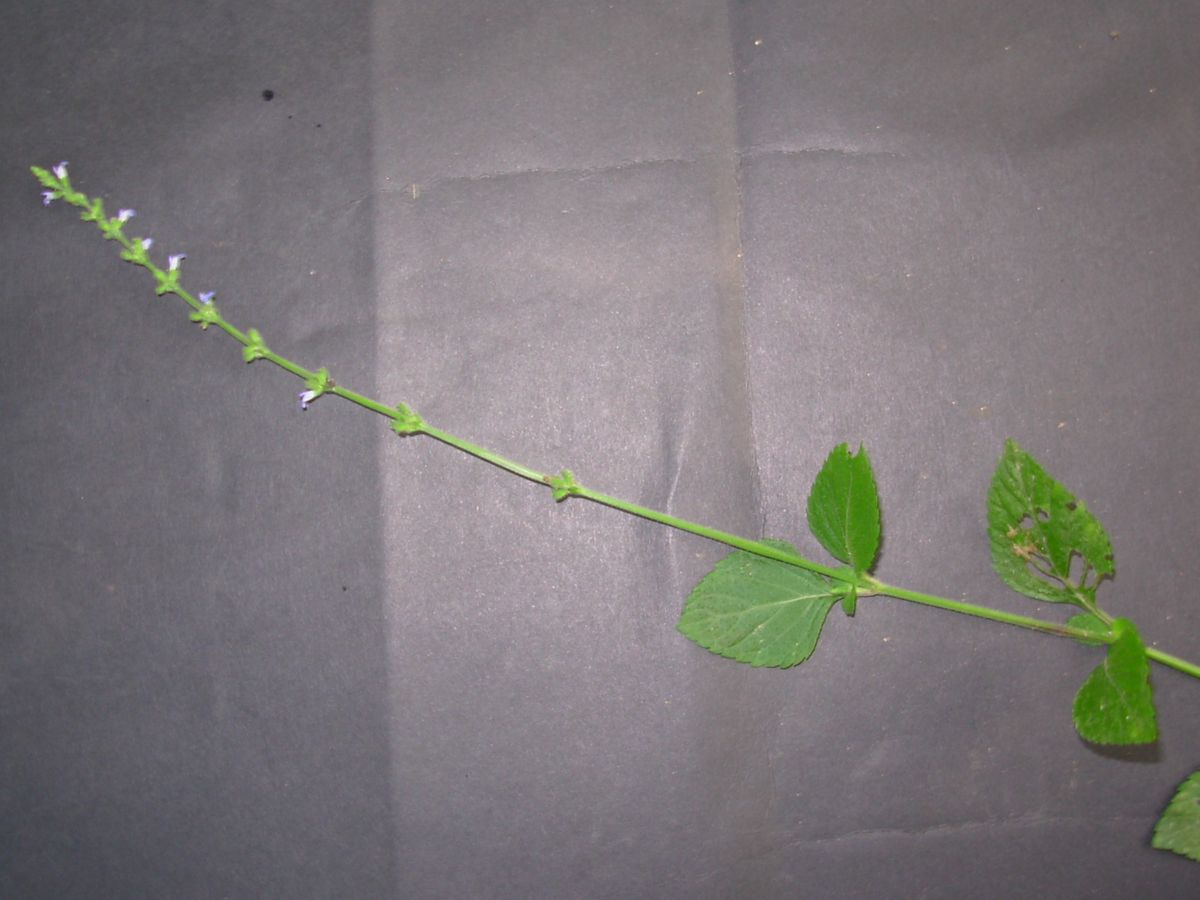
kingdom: Plantae
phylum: Tracheophyta
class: Magnoliopsida
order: Lamiales
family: Lamiaceae
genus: Salvia
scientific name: Salvia occidentalis
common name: West indian sage
